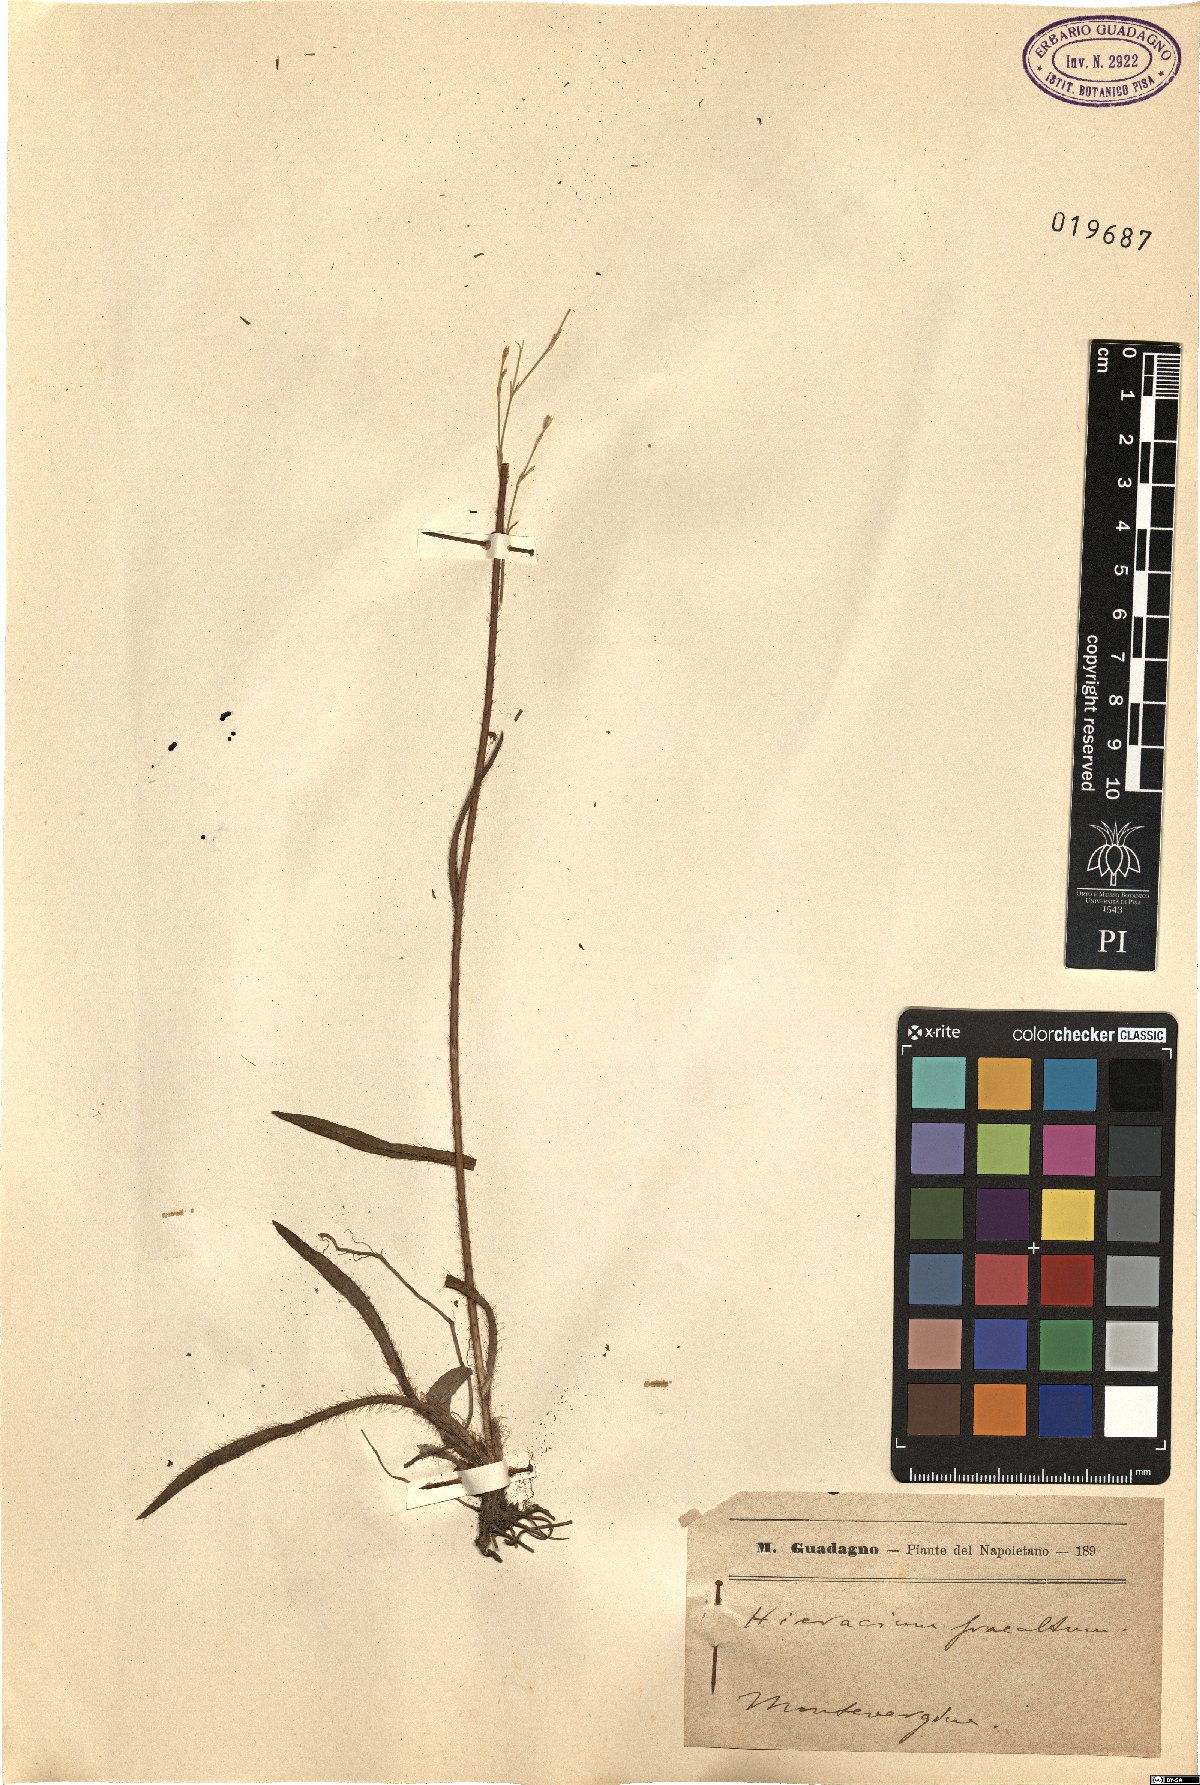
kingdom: Plantae
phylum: Tracheophyta
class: Magnoliopsida
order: Asterales
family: Asteraceae
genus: Pilosella
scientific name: Pilosella piloselloides
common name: Glaucous king-devil
